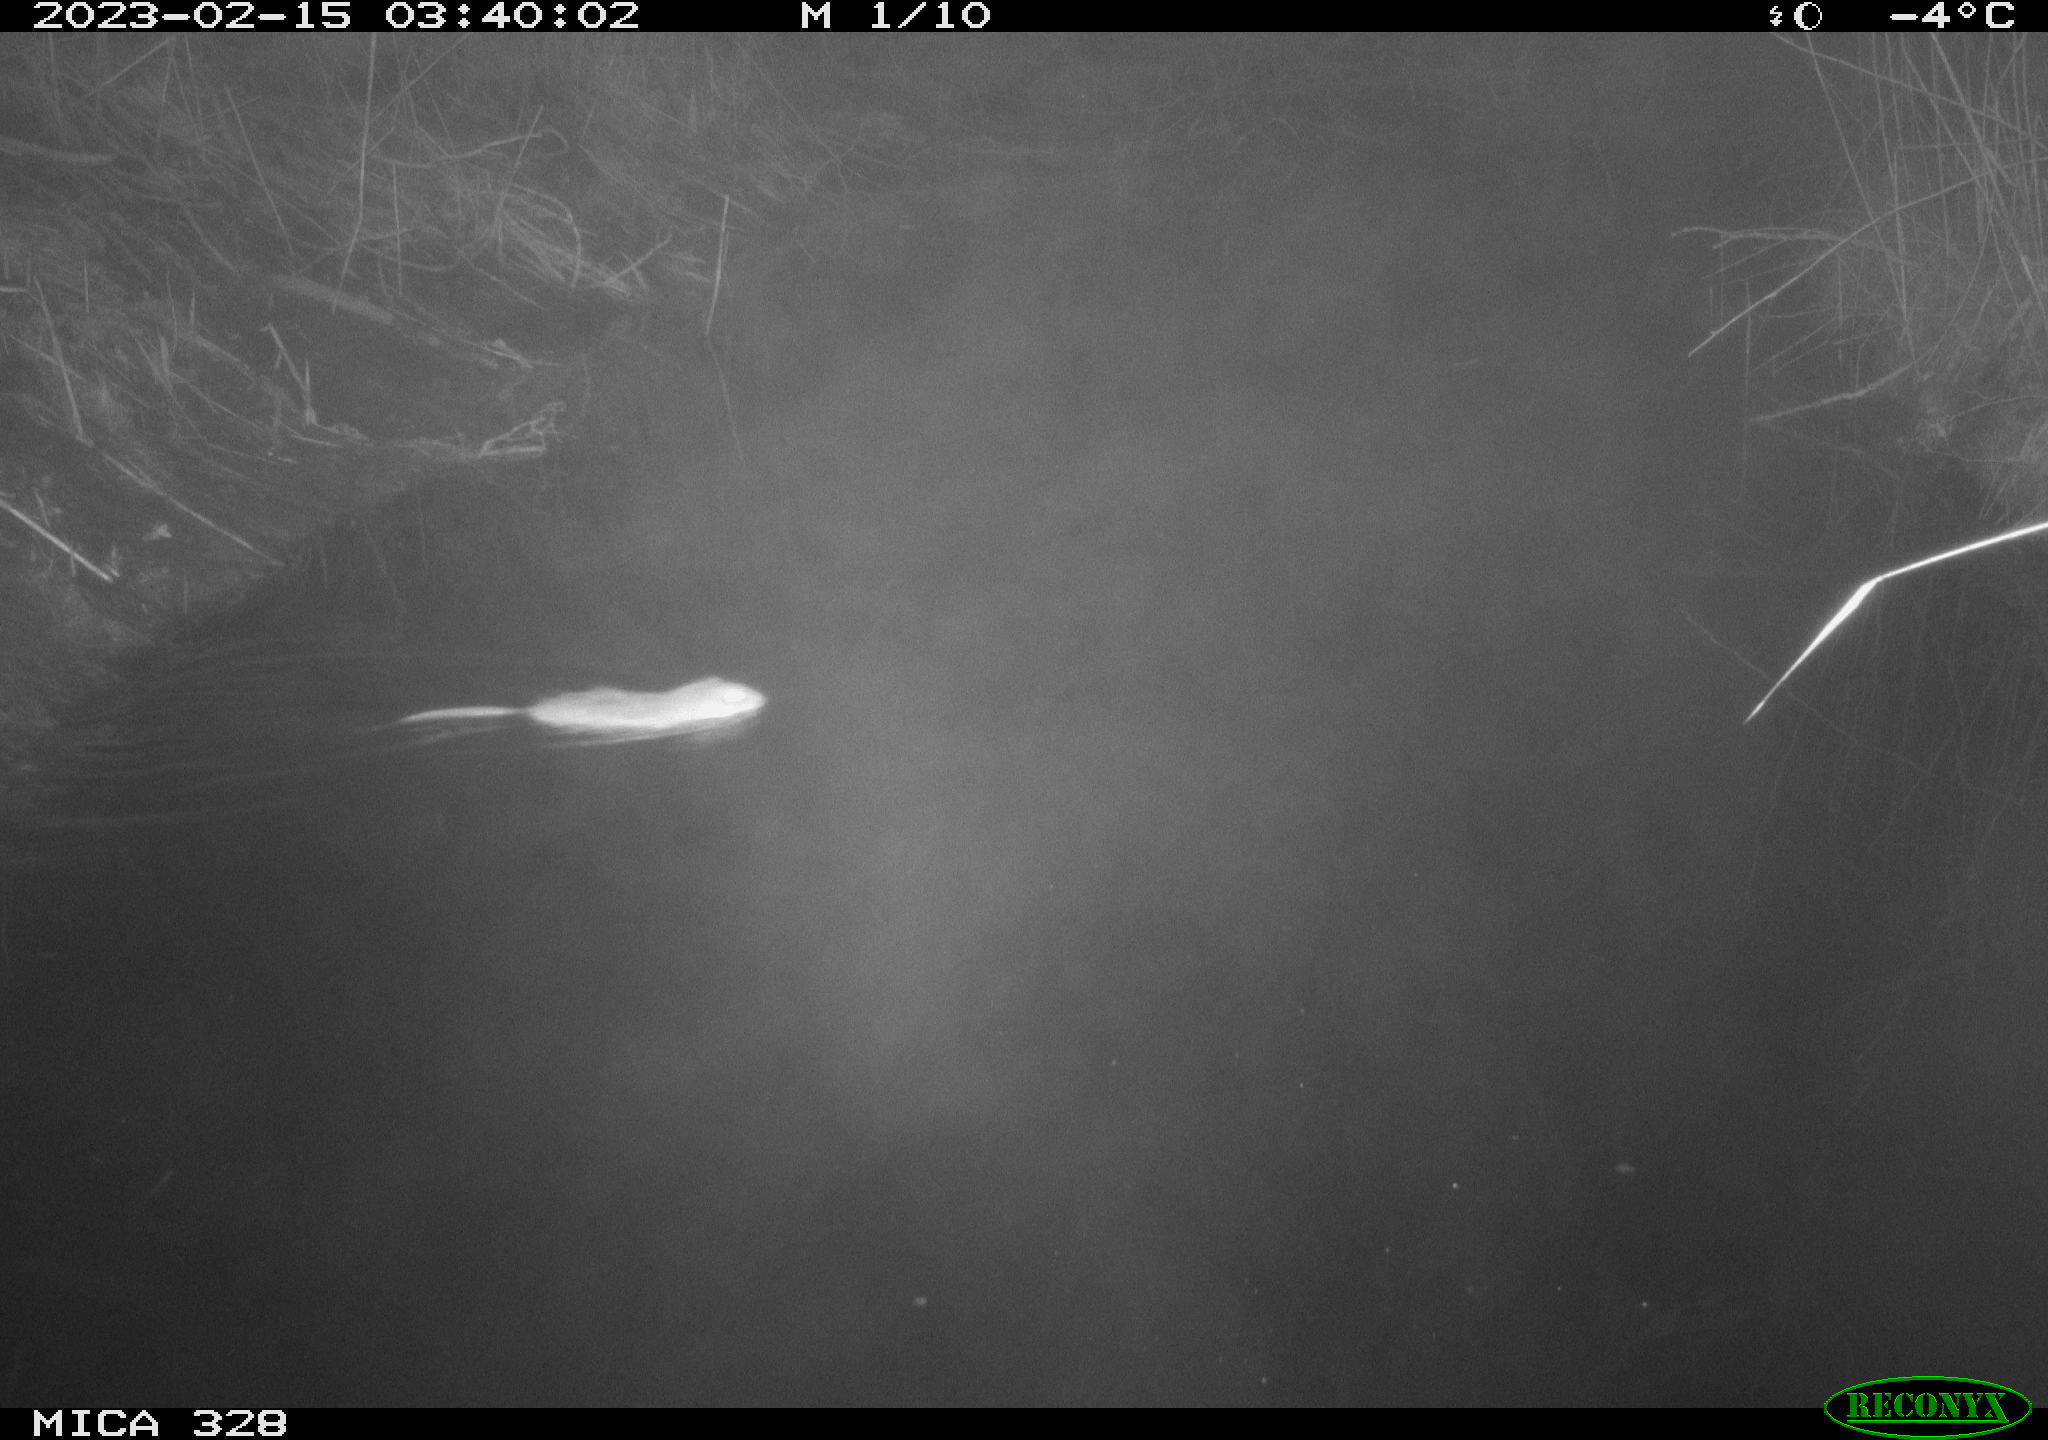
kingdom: Animalia
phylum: Chordata
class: Mammalia
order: Rodentia
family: Cricetidae
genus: Ondatra
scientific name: Ondatra zibethicus
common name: Muskrat
